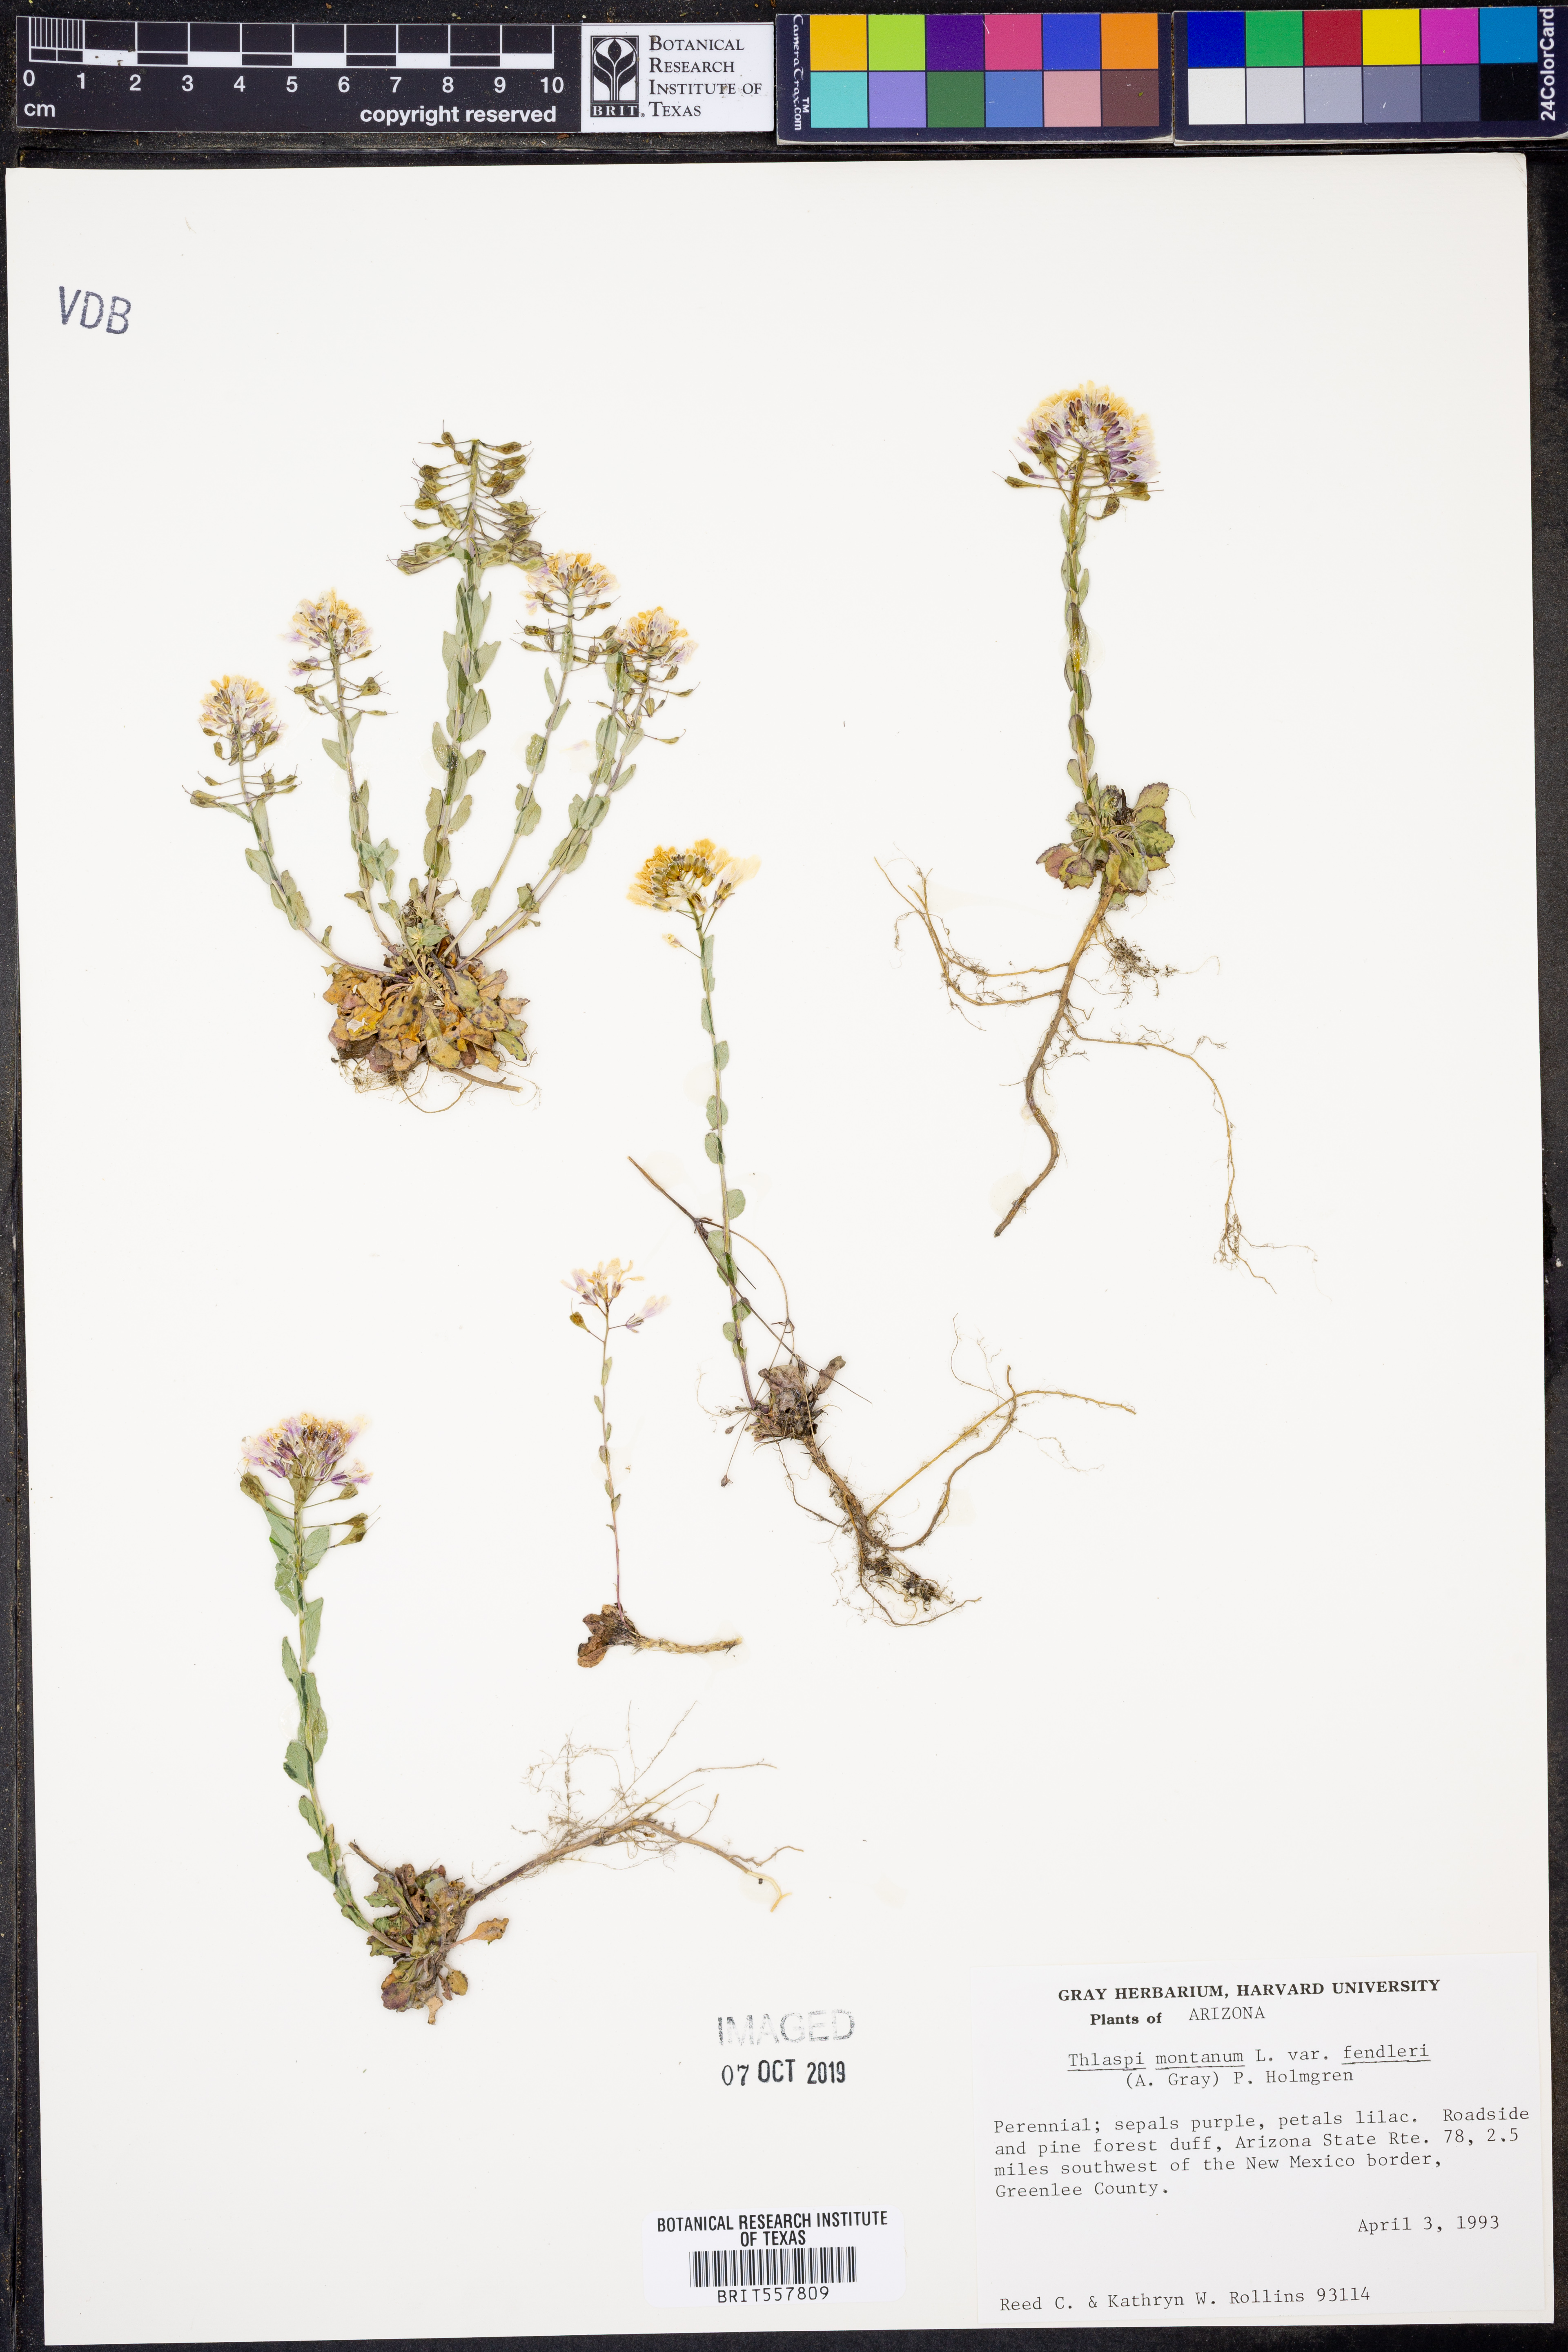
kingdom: Plantae
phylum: Tracheophyta
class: Magnoliopsida
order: Brassicales
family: Brassicaceae
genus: Noccaea
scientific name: Noccaea fendleri
